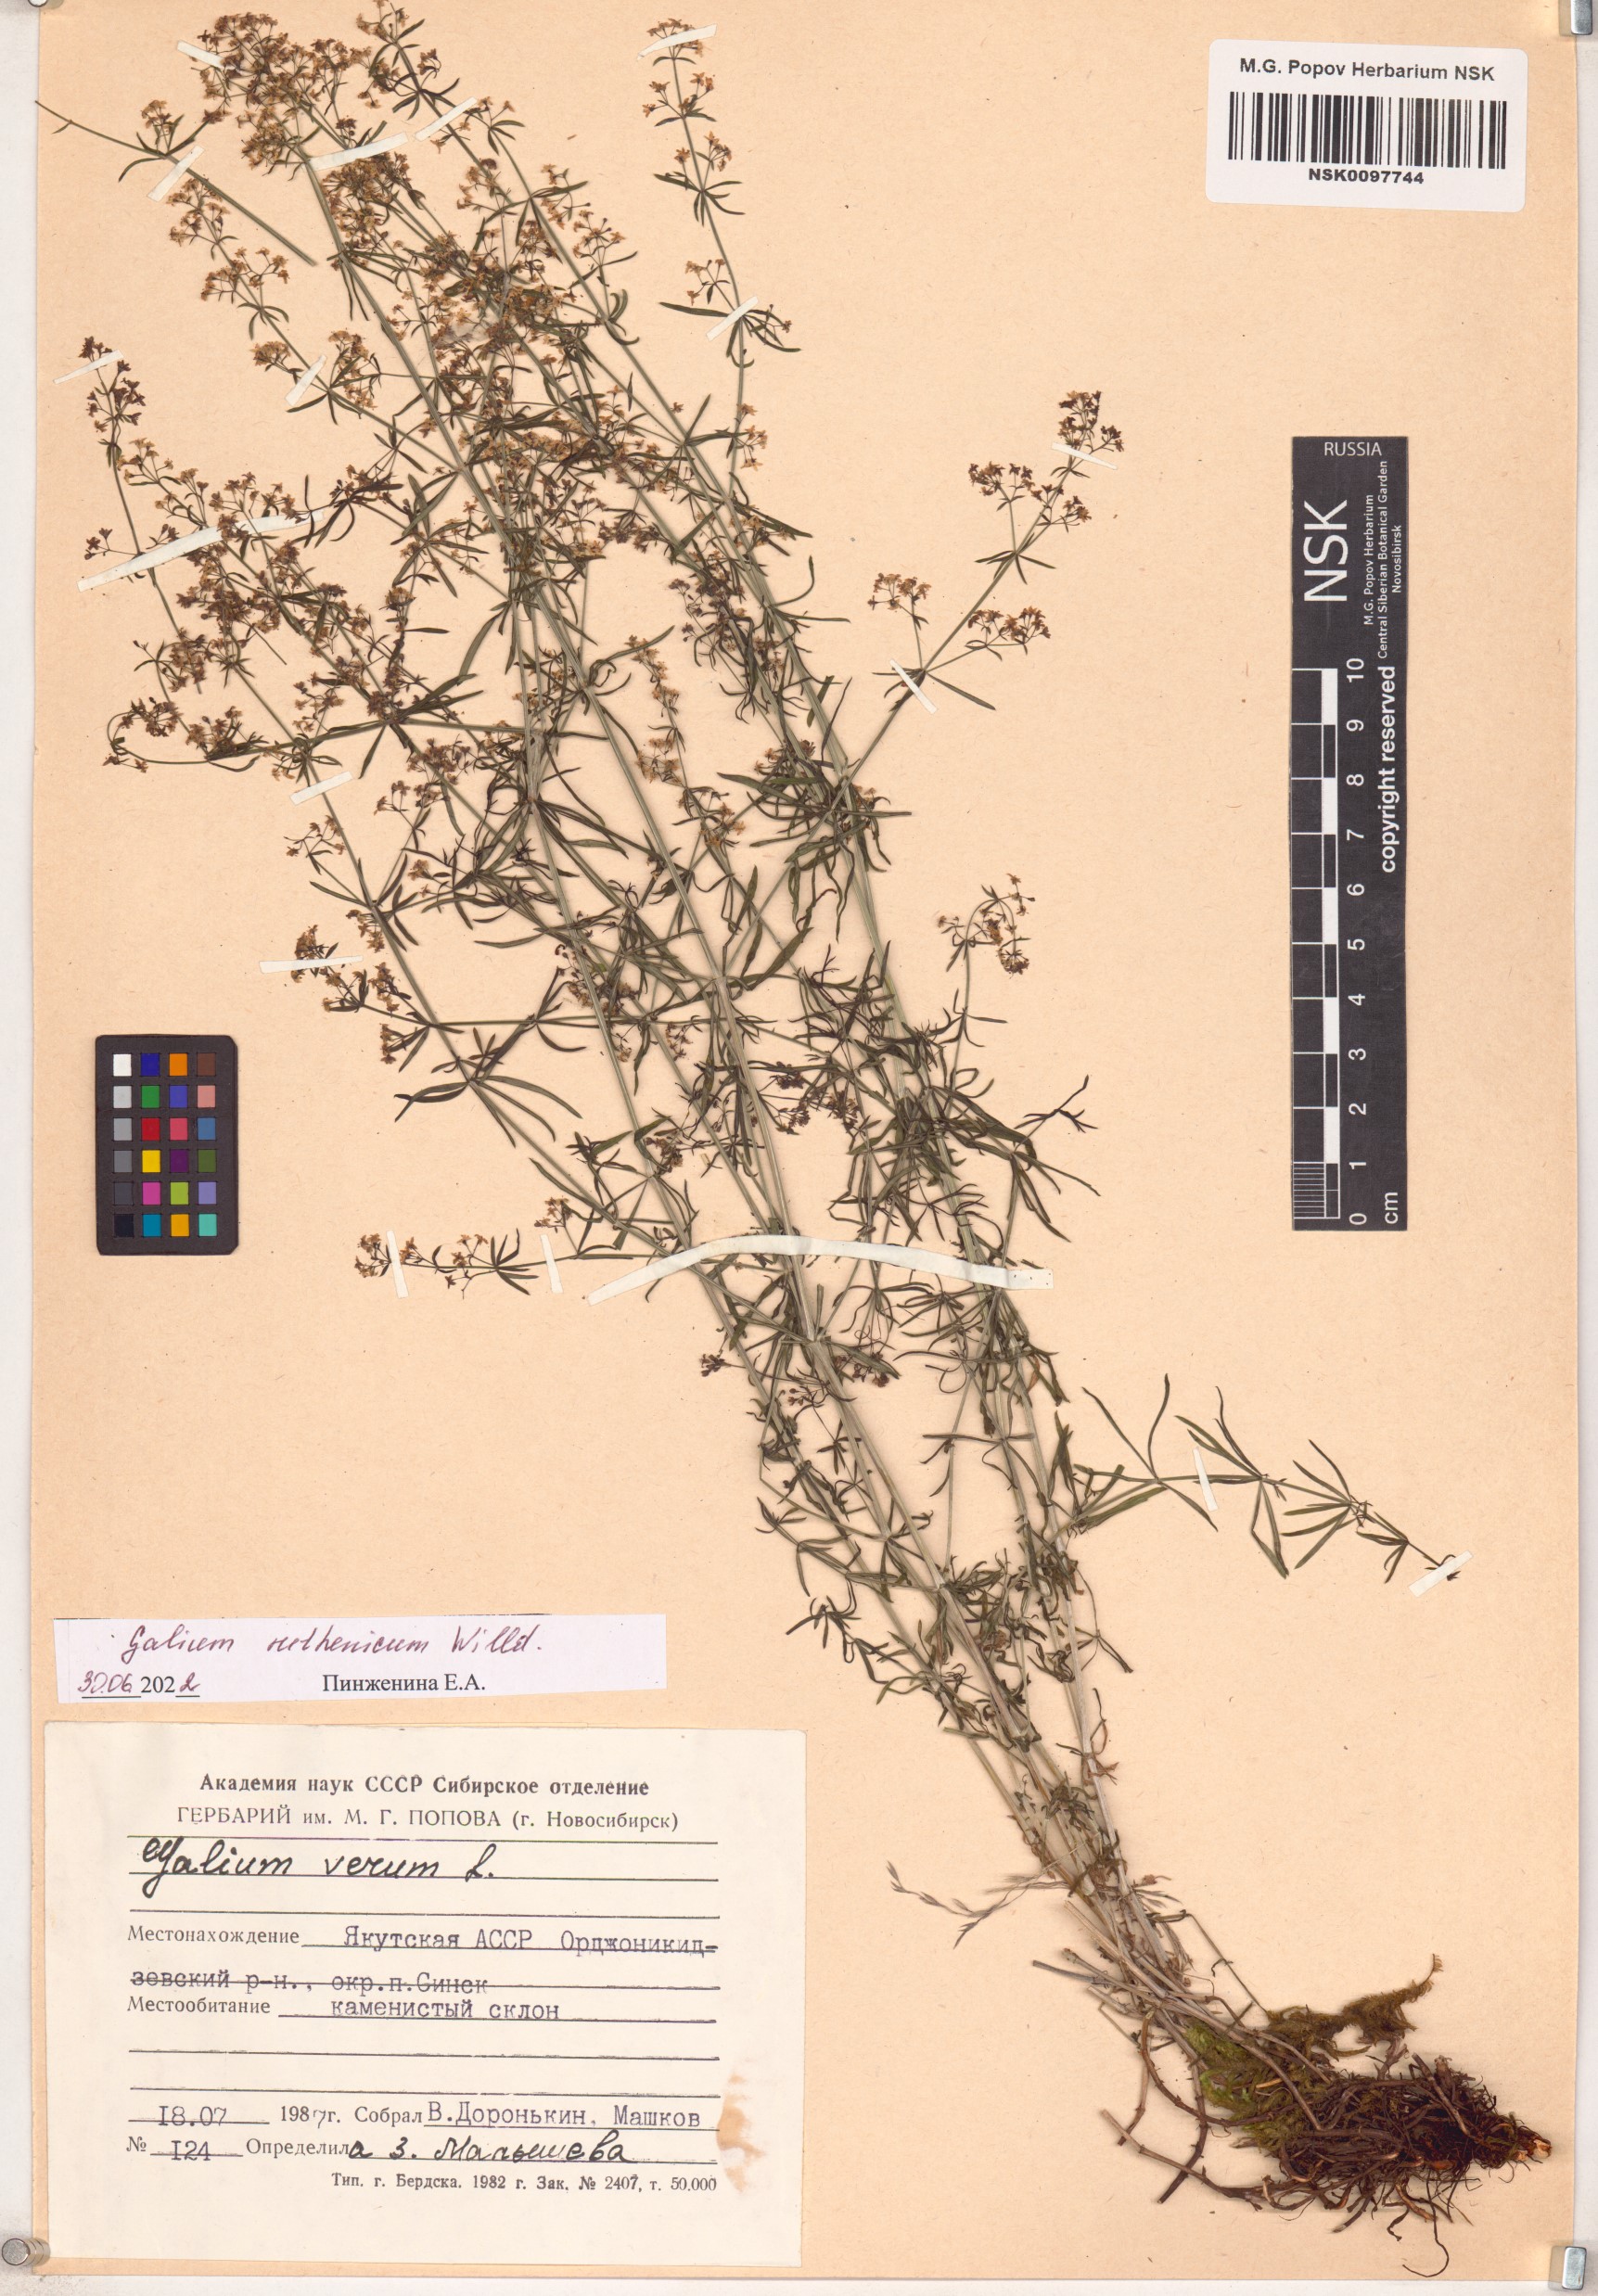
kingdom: Plantae
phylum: Tracheophyta
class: Magnoliopsida
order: Gentianales
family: Rubiaceae
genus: Galium
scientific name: Galium verum
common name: Lady's bedstraw
